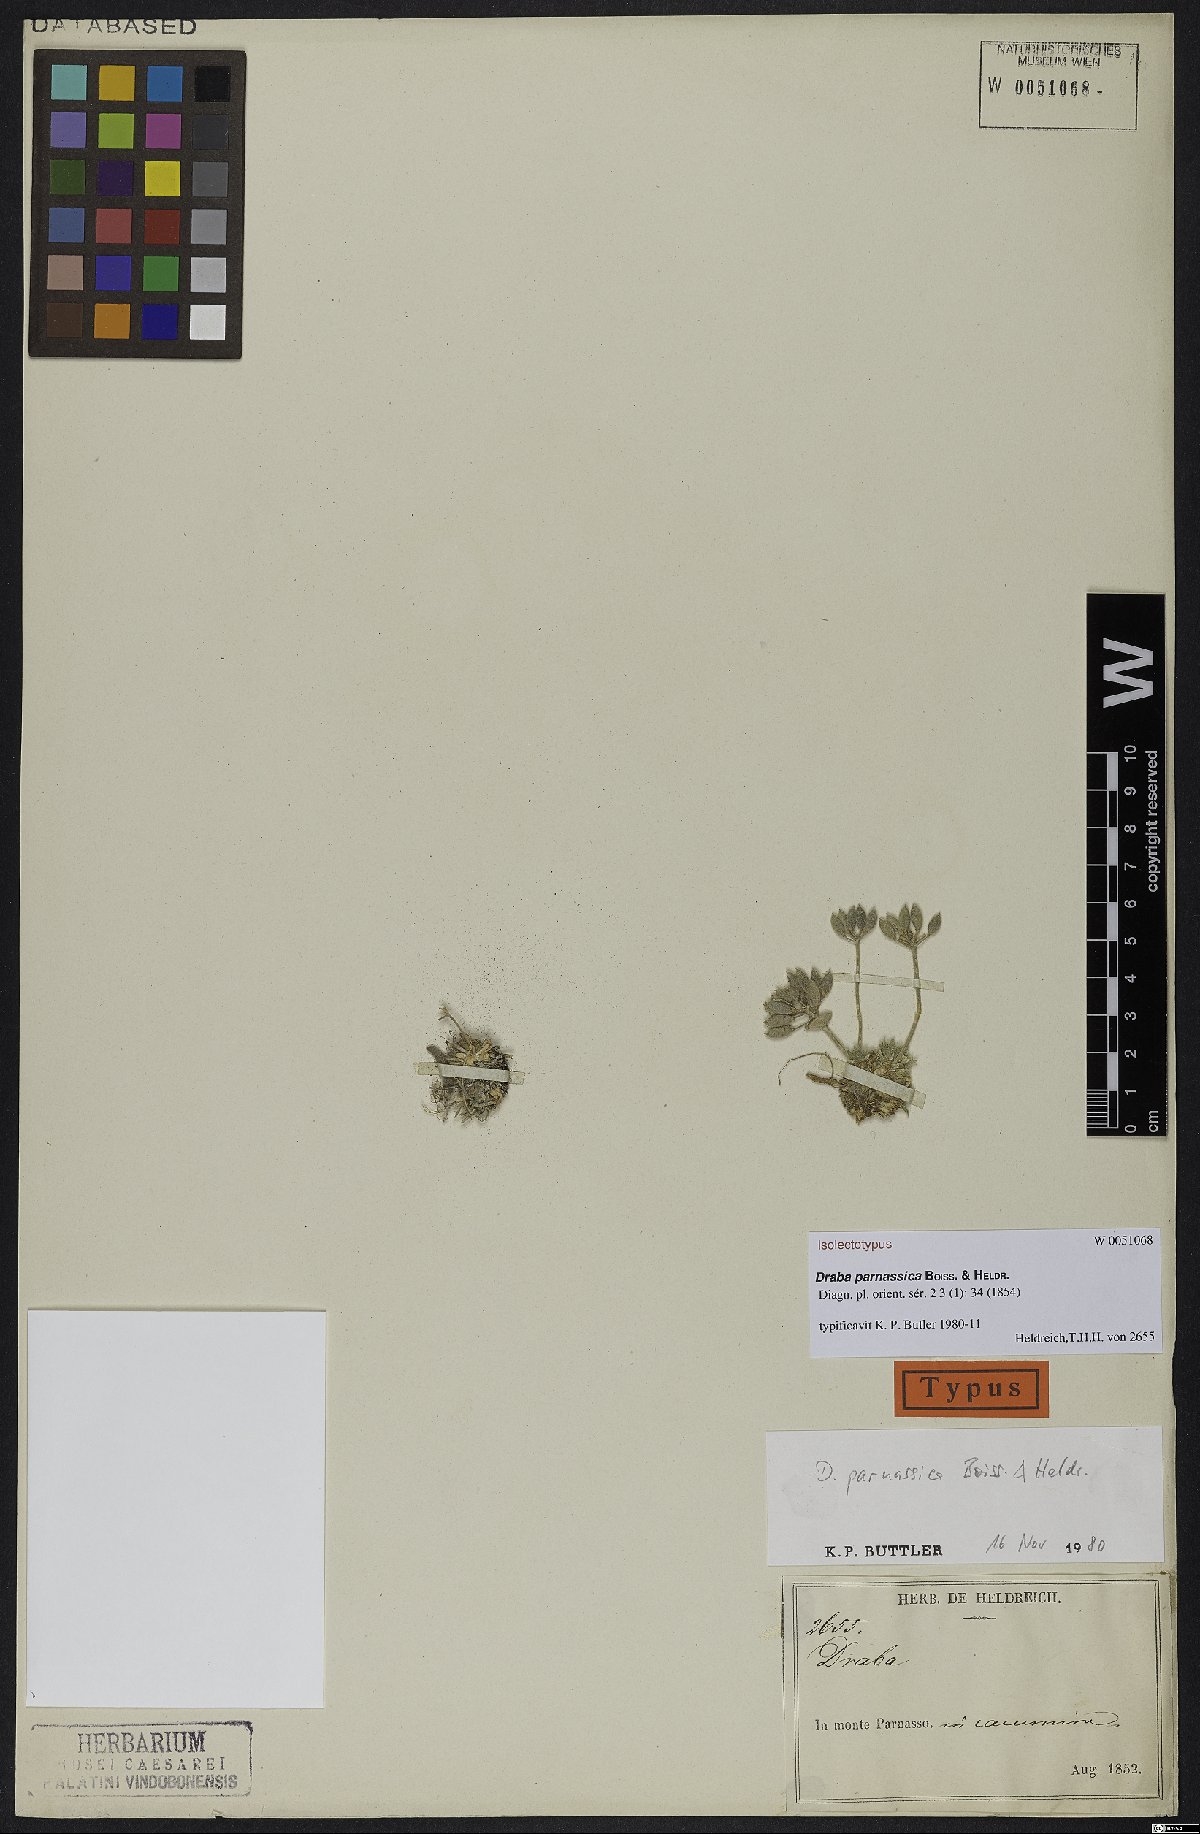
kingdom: Plantae
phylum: Tracheophyta
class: Magnoliopsida
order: Brassicales
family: Brassicaceae
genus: Draba
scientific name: Draba parnassica
